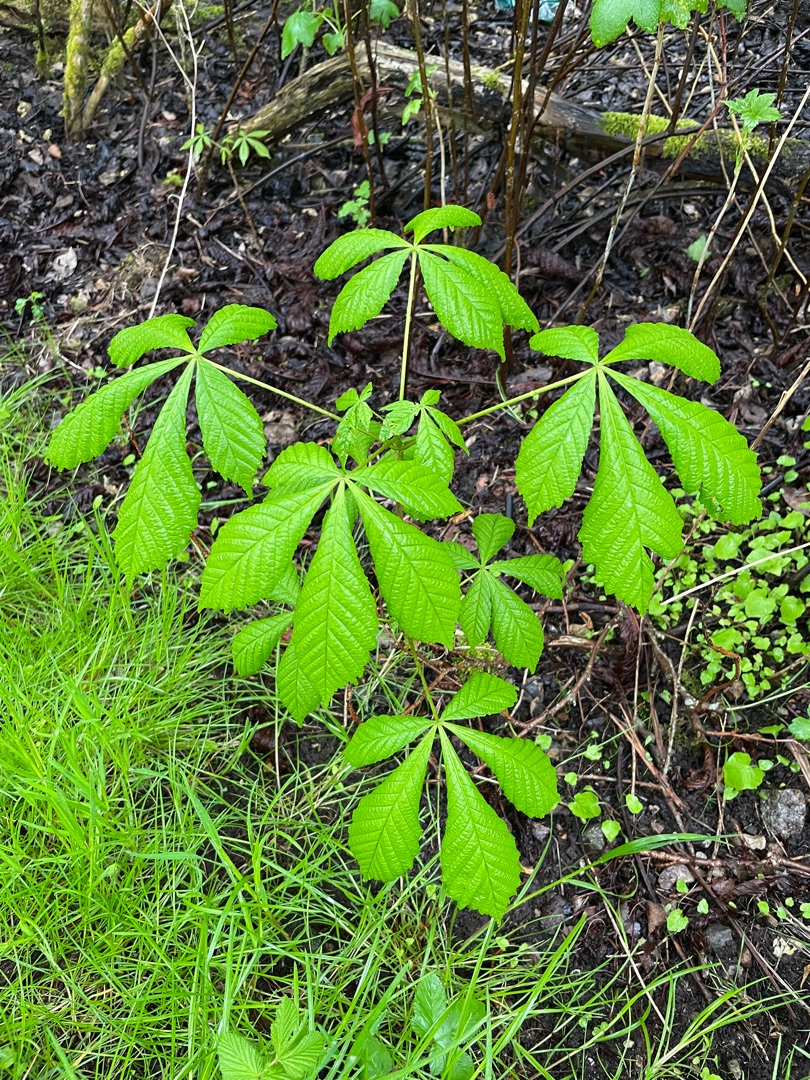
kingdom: Plantae
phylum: Tracheophyta
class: Magnoliopsida
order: Sapindales
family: Sapindaceae
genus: Aesculus
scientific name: Aesculus hippocastanum
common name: Hestekastanie
